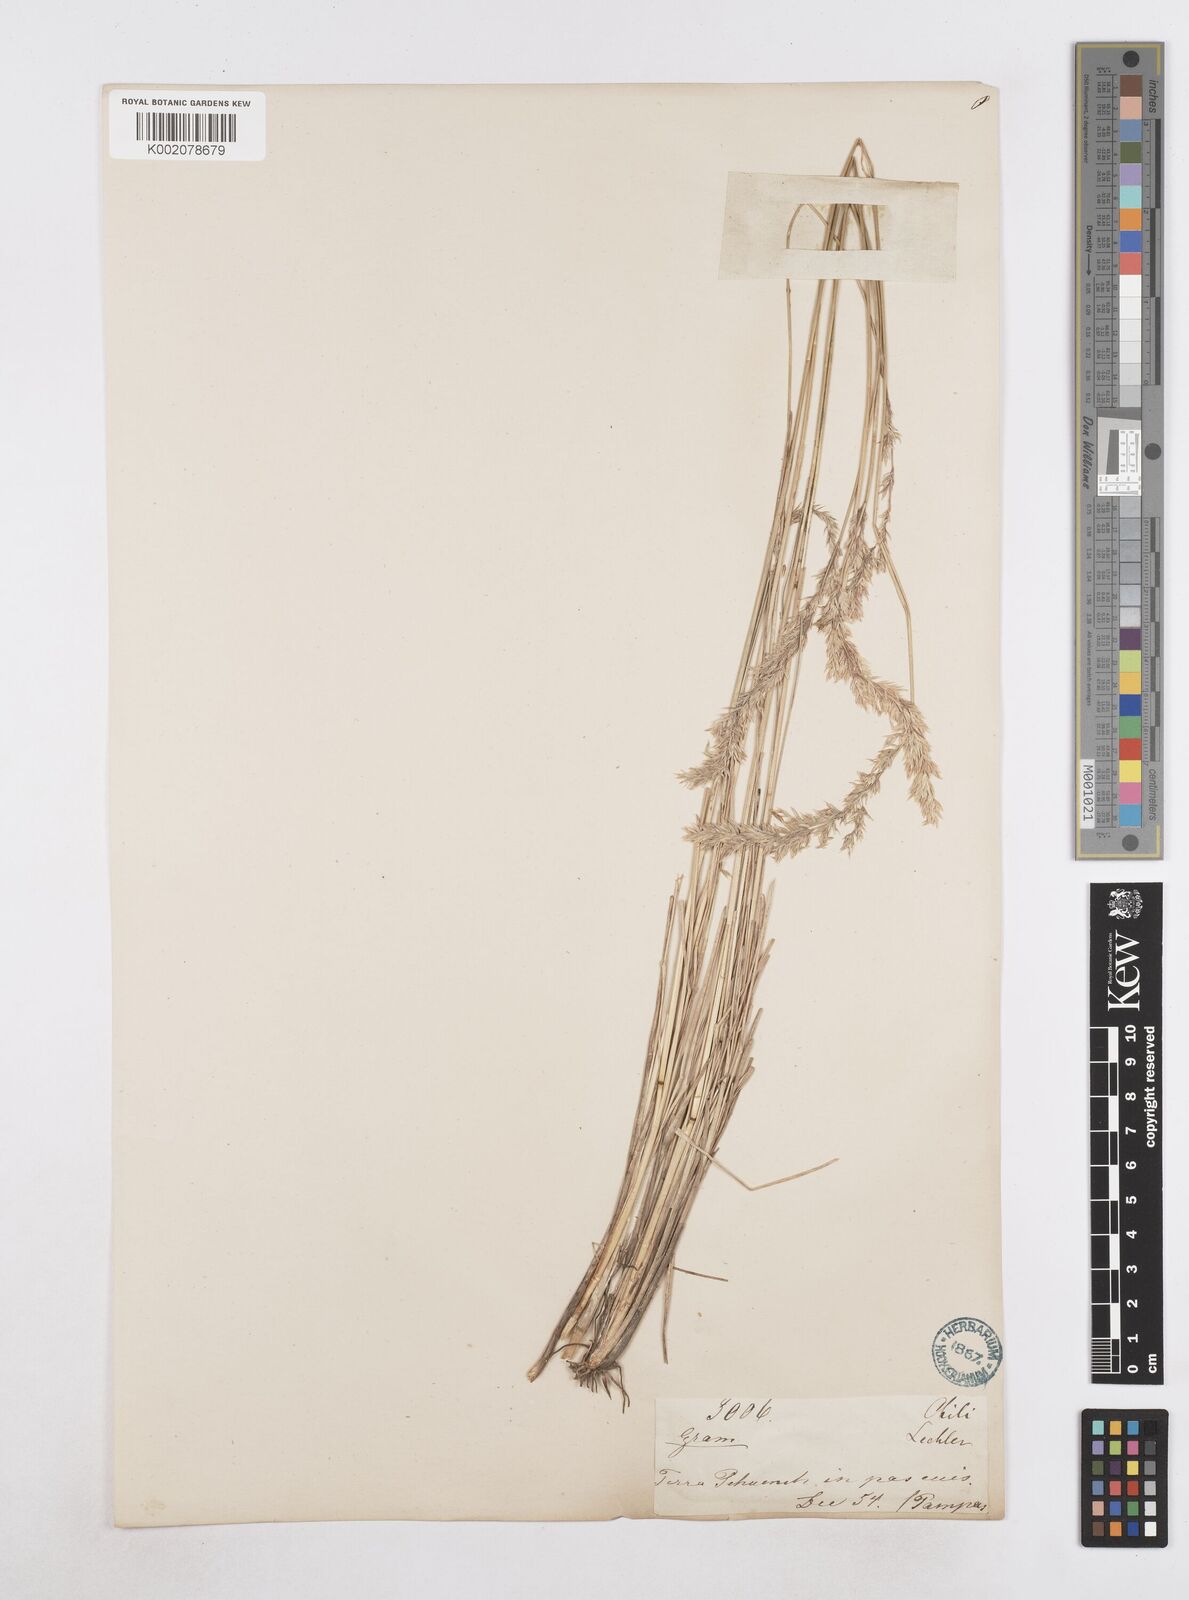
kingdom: Plantae
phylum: Tracheophyta
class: Liliopsida
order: Poales
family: Poaceae
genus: Poa
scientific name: Poa spiciformis
